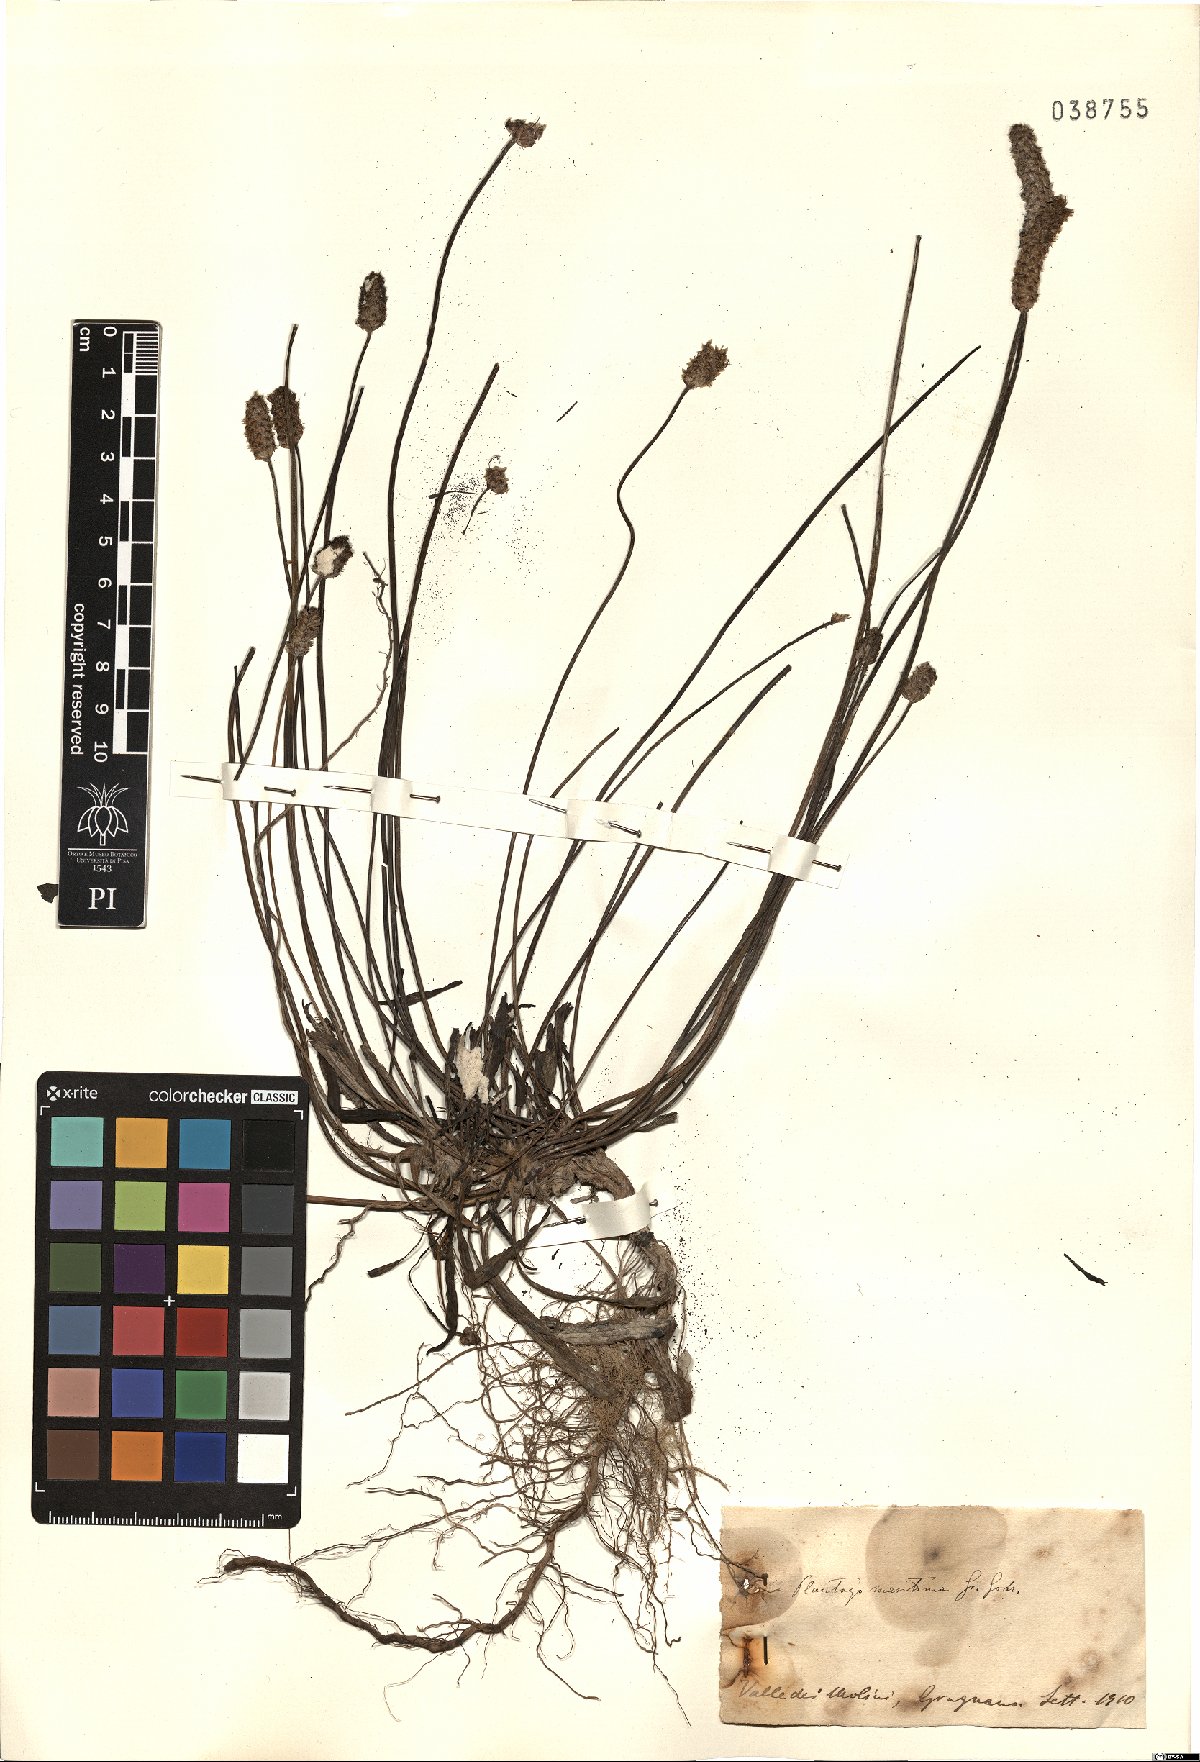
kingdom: Plantae
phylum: Tracheophyta
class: Magnoliopsida
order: Lamiales
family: Plantaginaceae
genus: Plantago
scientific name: Plantago maritima
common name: Sea plantain
